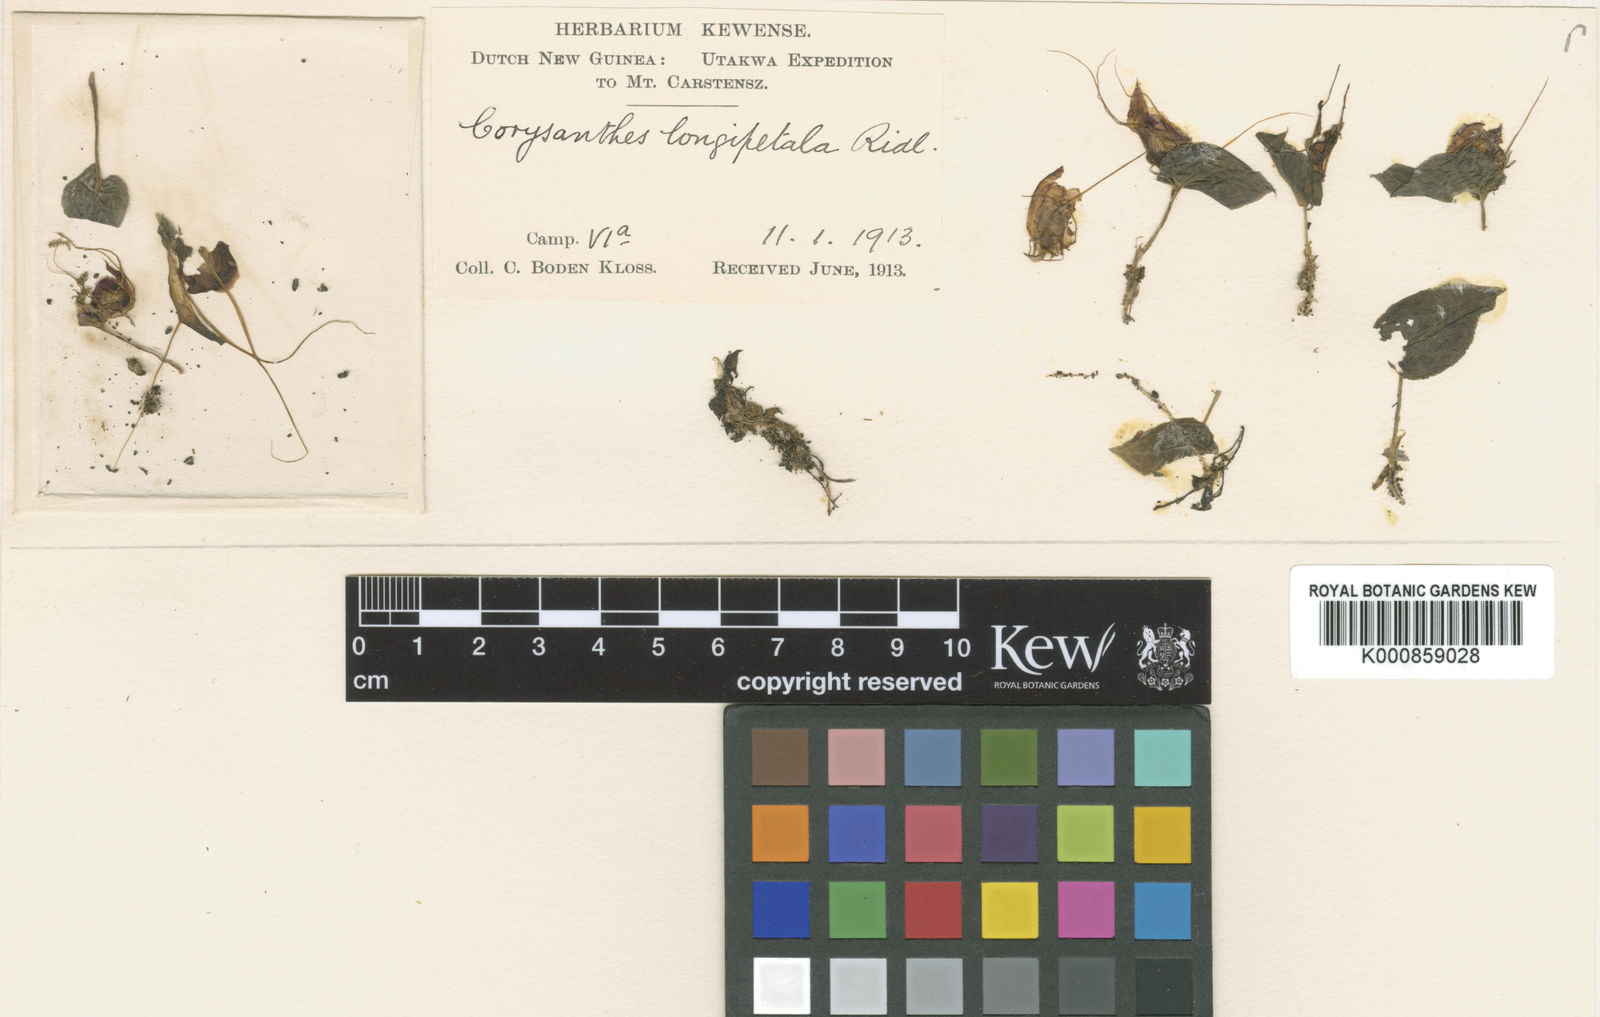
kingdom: Plantae
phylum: Tracheophyta
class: Liliopsida
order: Asparagales
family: Orchidaceae
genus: Corybas
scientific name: Corybas longipetalus
